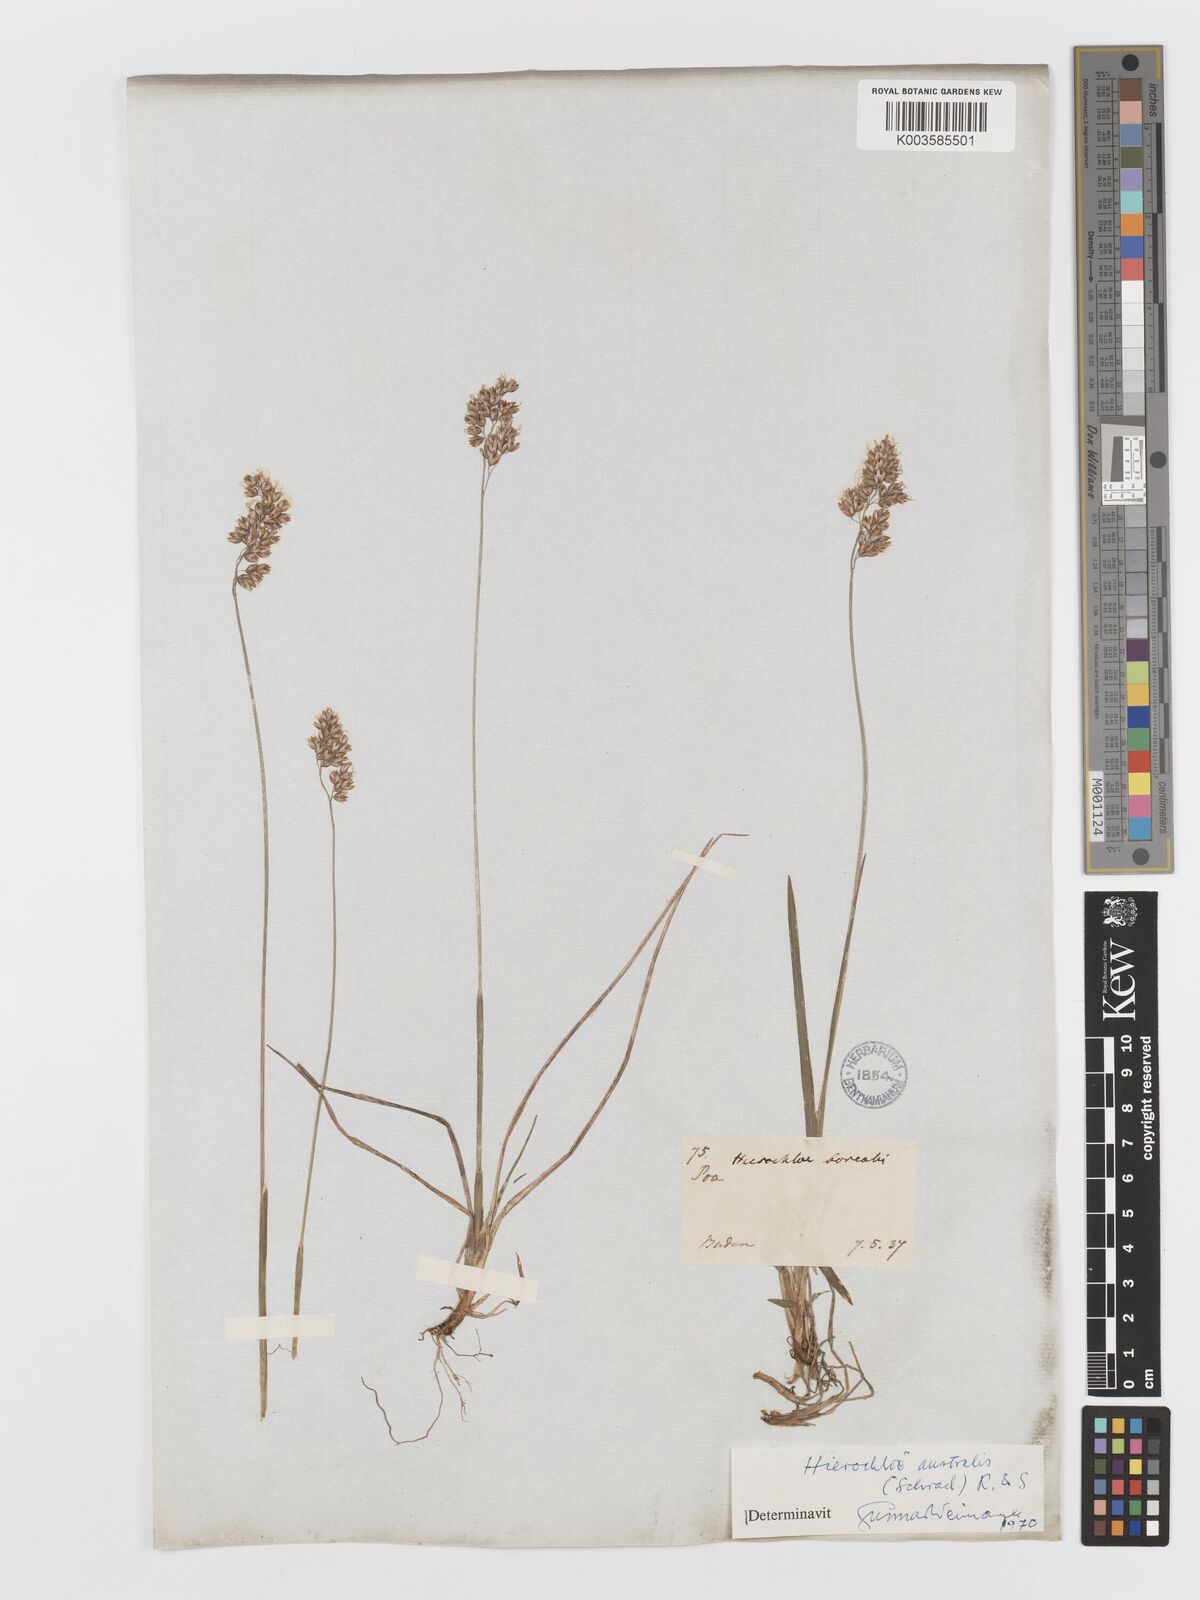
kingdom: Plantae
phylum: Tracheophyta
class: Liliopsida
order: Poales
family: Poaceae
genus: Anthoxanthum
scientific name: Anthoxanthum australe
